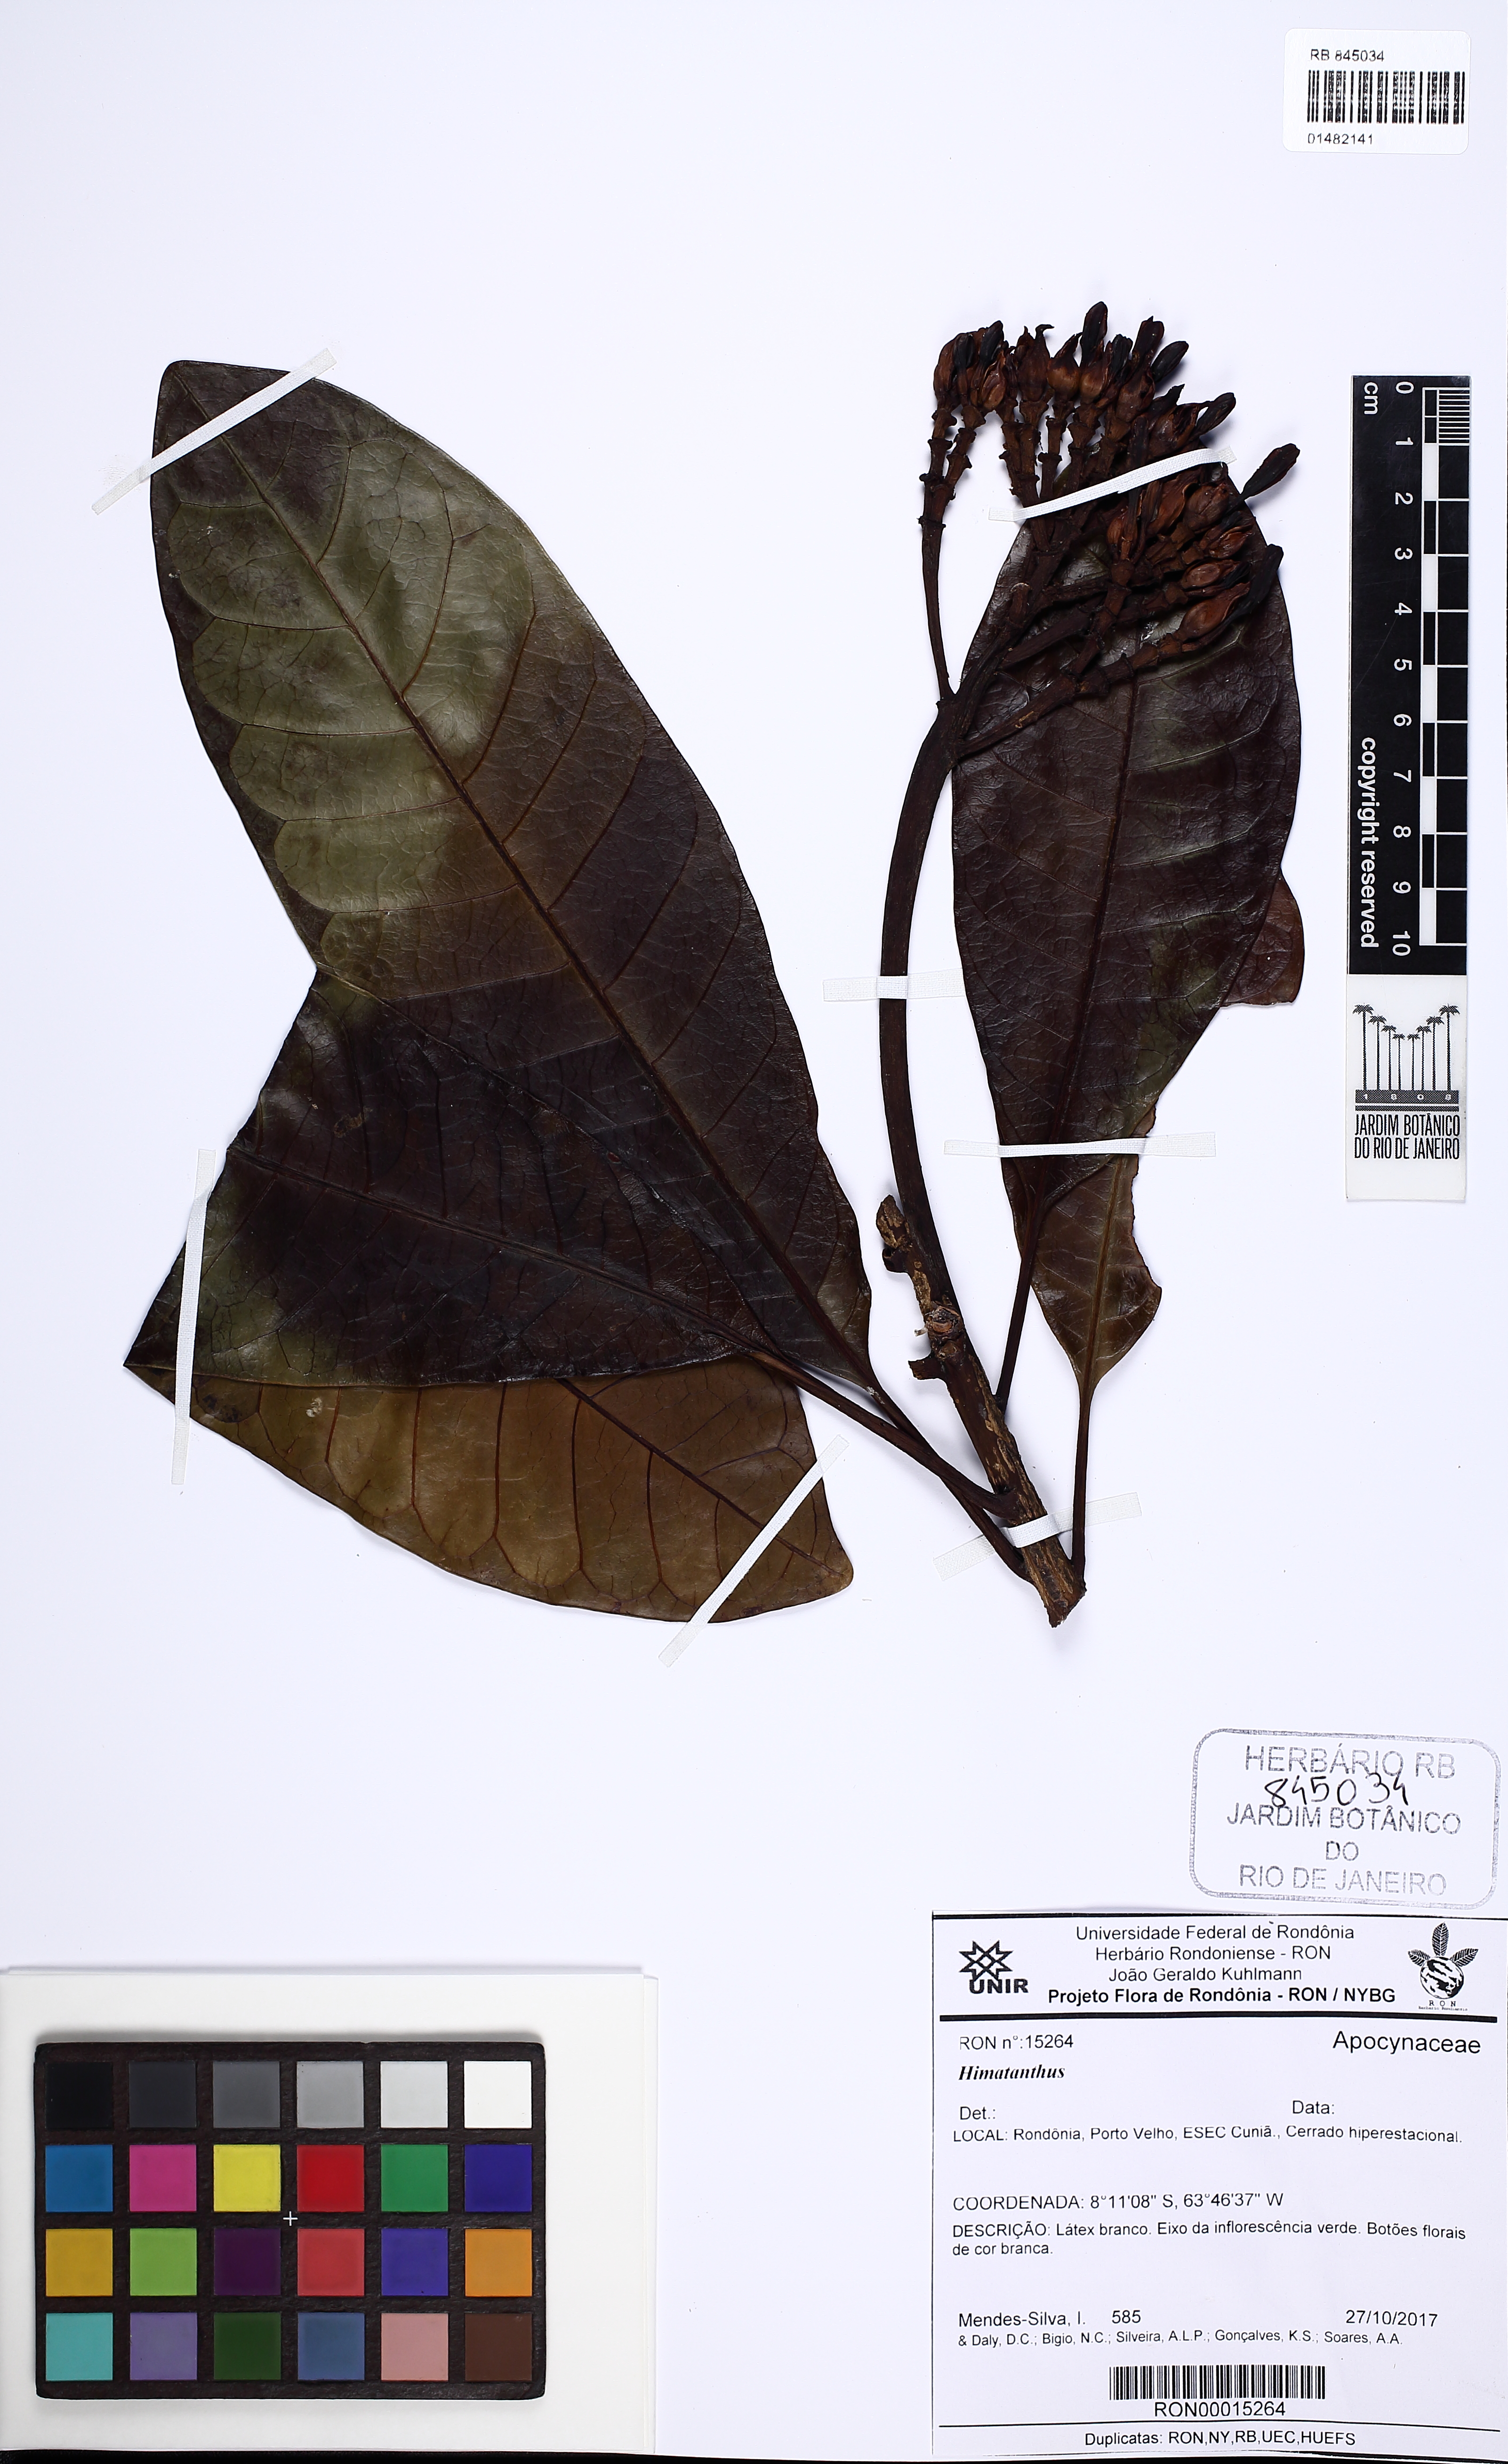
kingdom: Plantae
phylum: Tracheophyta
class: Magnoliopsida
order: Gentianales
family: Apocynaceae
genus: Himatanthus
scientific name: Himatanthus
